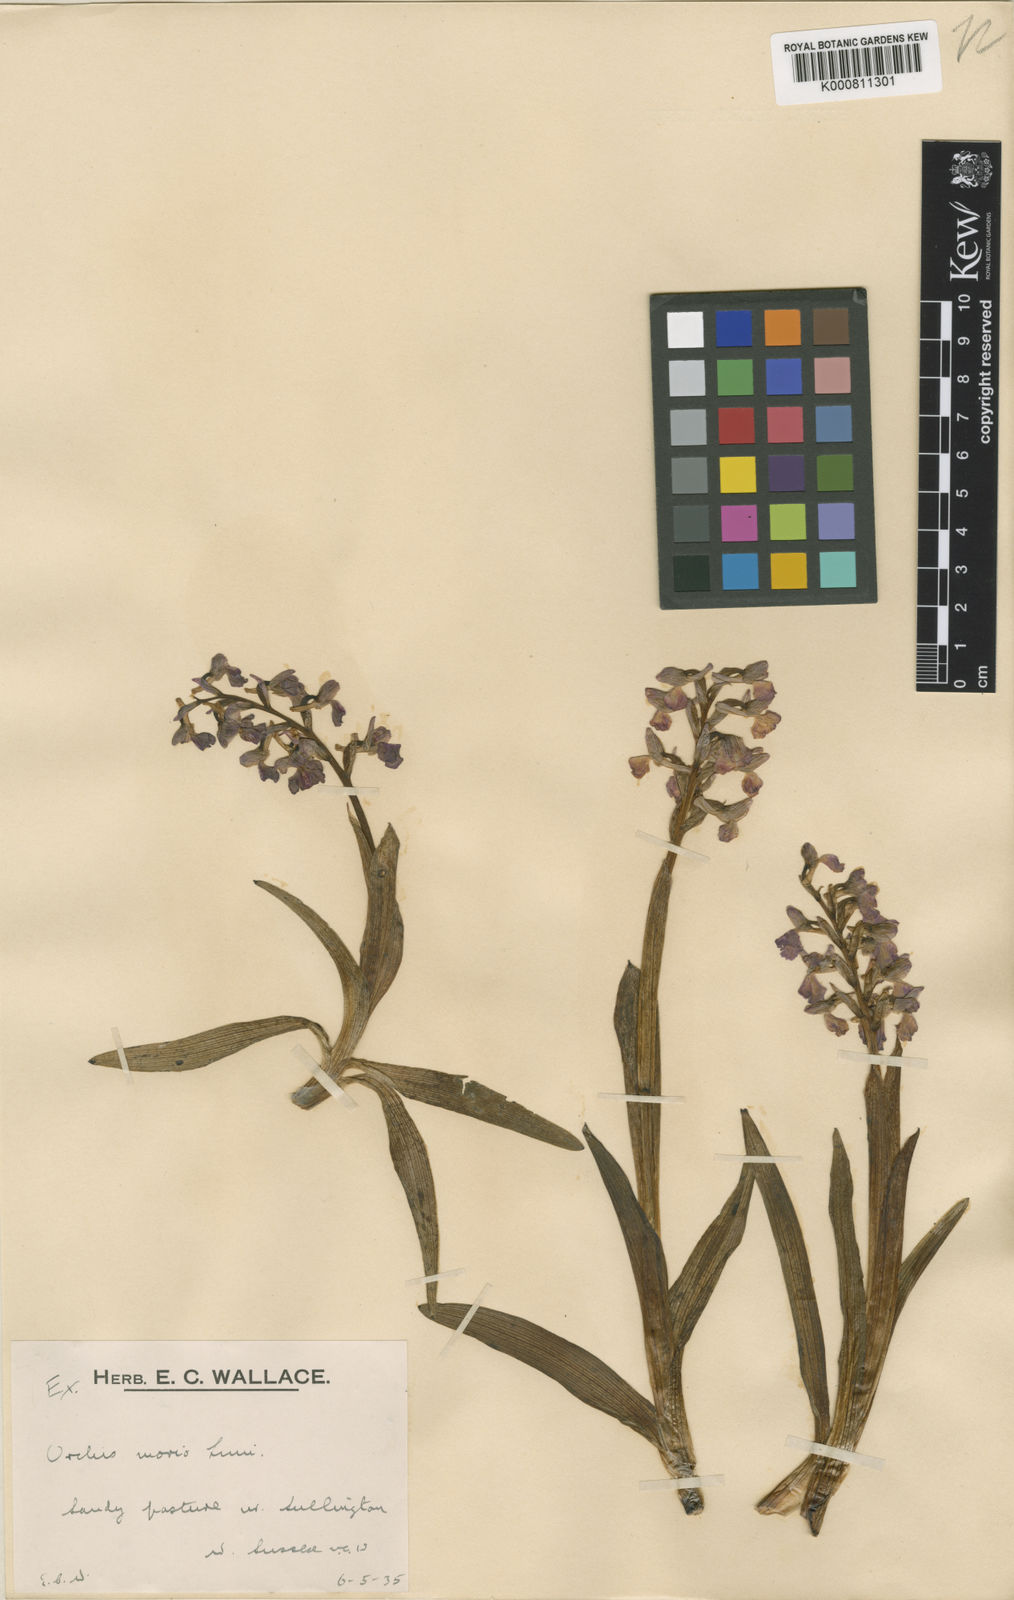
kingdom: Plantae
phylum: Tracheophyta
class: Liliopsida
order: Asparagales
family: Orchidaceae
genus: Anacamptis
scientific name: Anacamptis morio
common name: Green-winged orchid
